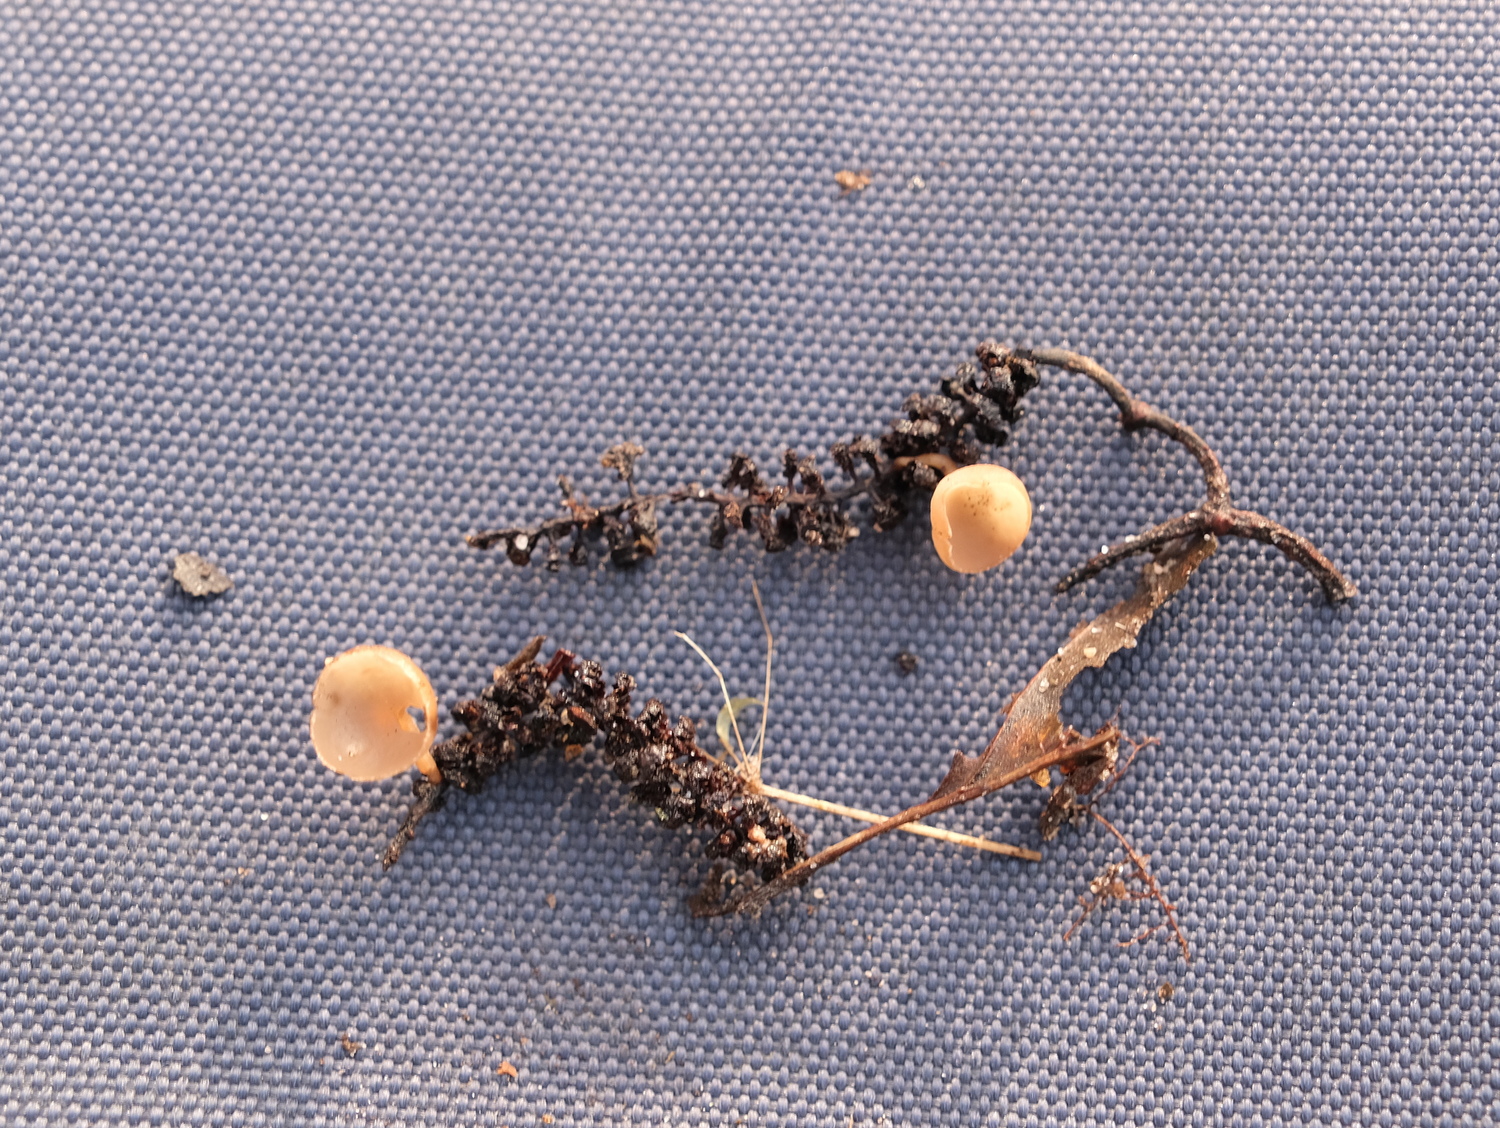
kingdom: Fungi
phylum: Ascomycota
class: Leotiomycetes
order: Helotiales
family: Sclerotiniaceae
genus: Ciboria
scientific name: Ciboria amentacea
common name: ellerakle-knoldskive
